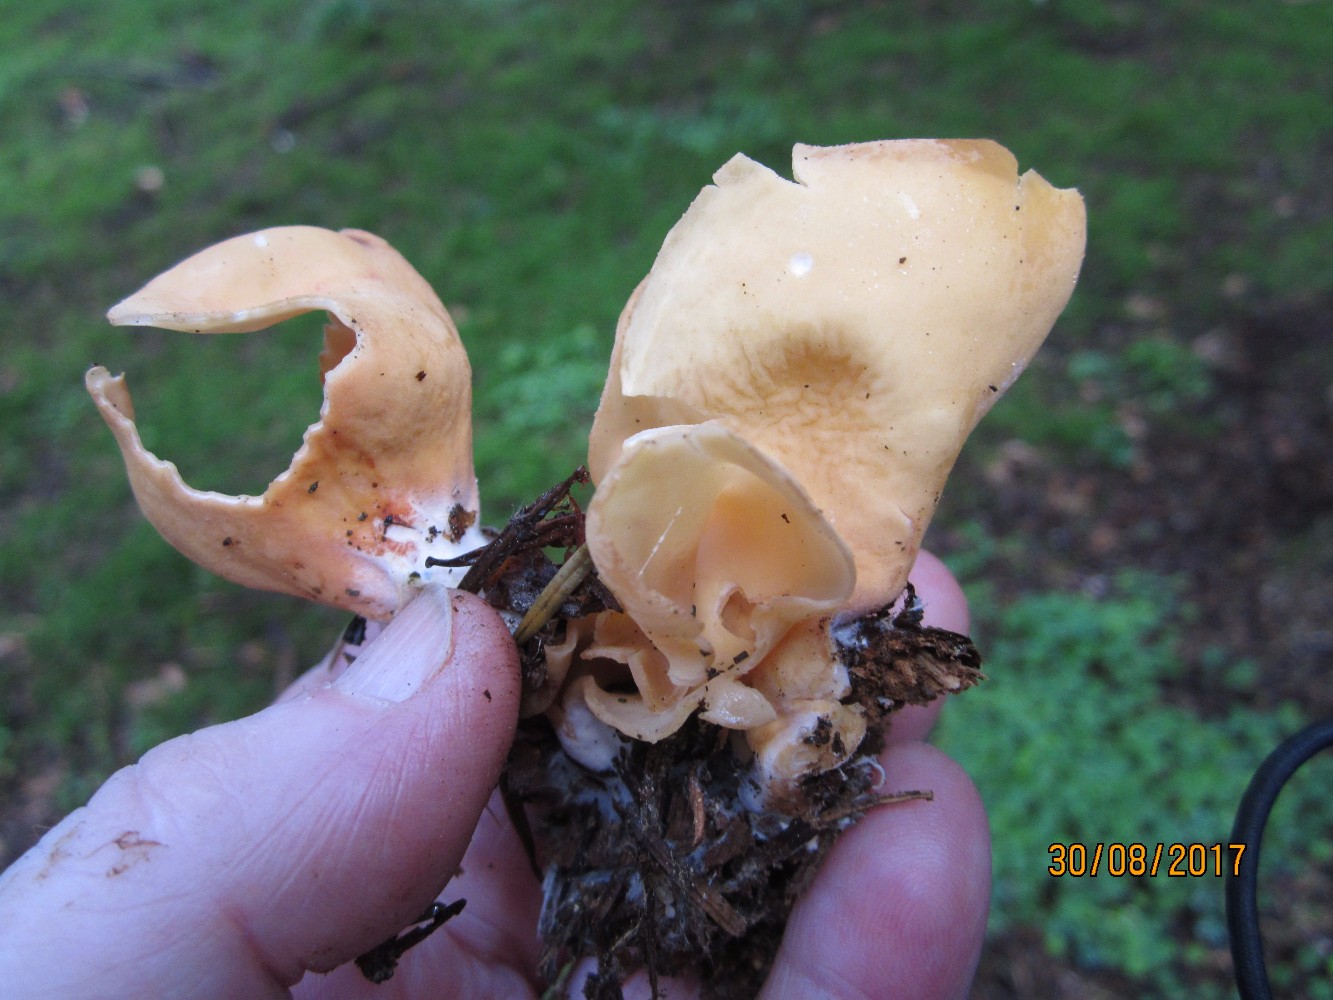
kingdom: Fungi
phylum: Ascomycota
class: Pezizomycetes
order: Pezizales
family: Otideaceae
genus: Otidea
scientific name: Otidea onotica
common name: æsel-ørebæger
